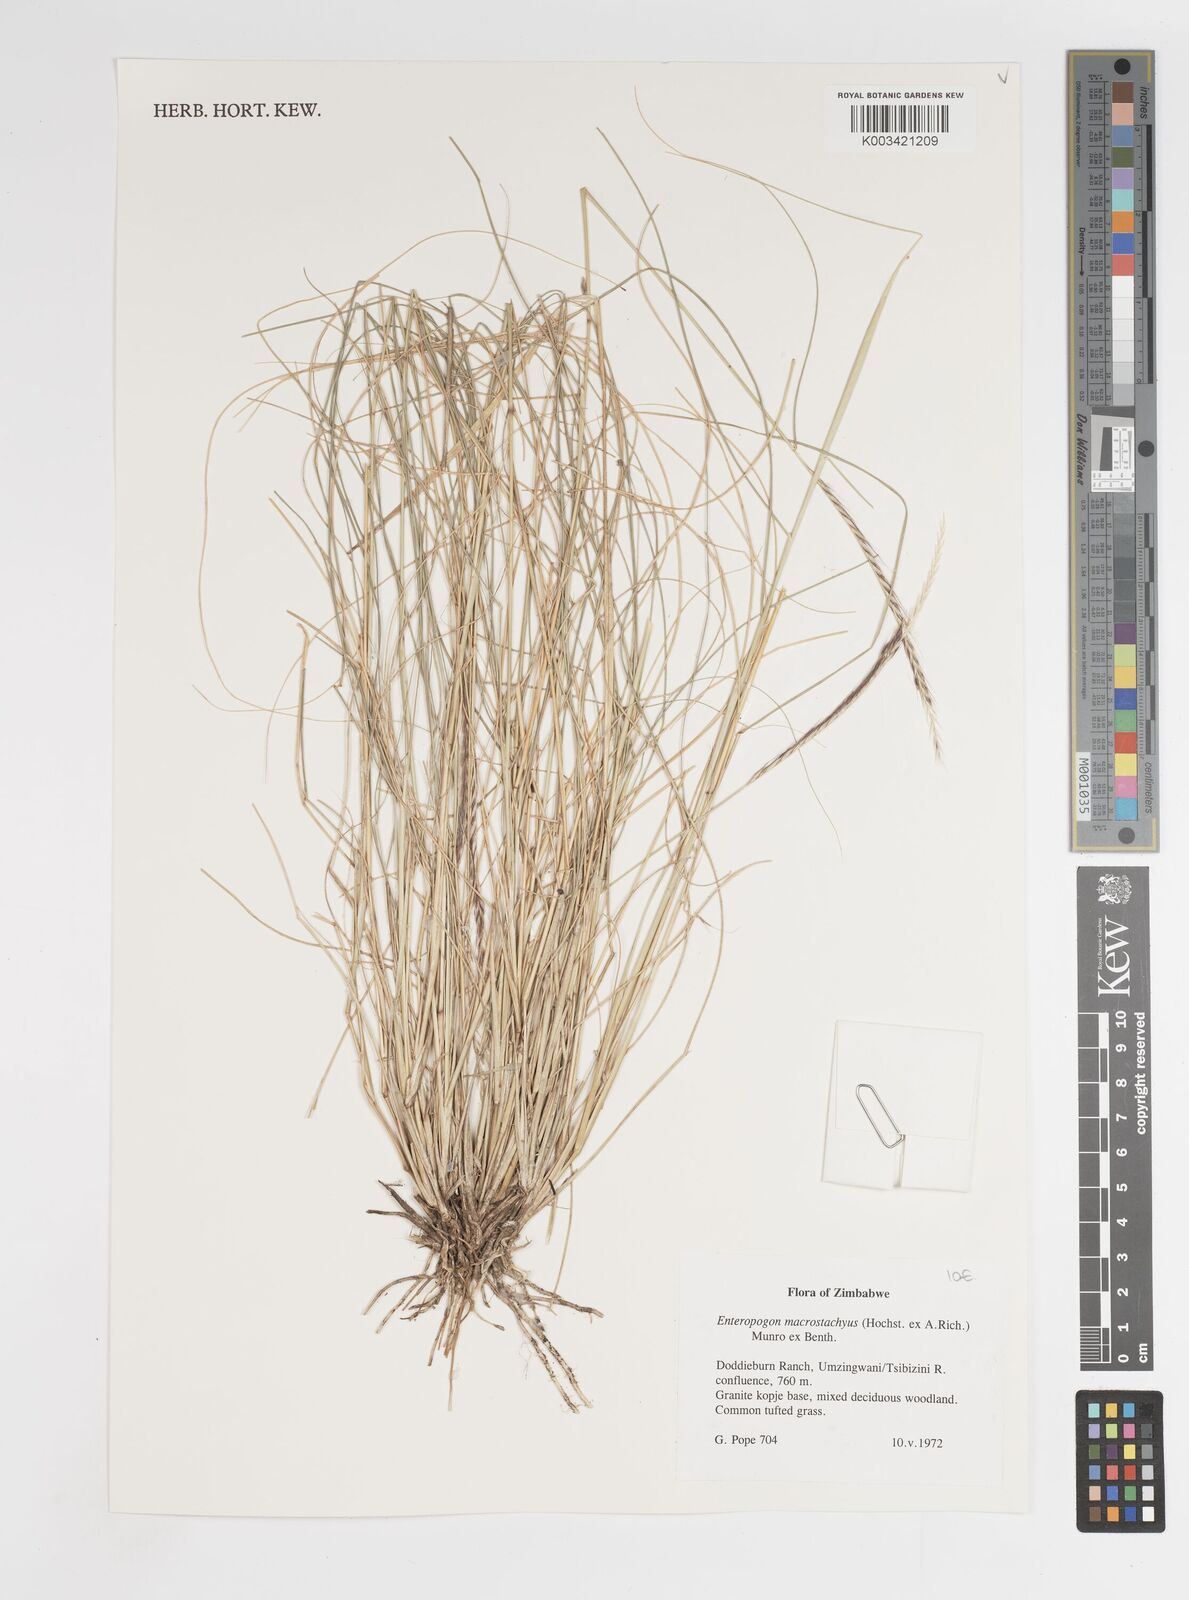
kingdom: Plantae
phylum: Tracheophyta
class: Liliopsida
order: Poales
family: Poaceae
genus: Enteropogon
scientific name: Enteropogon macrostachyus
